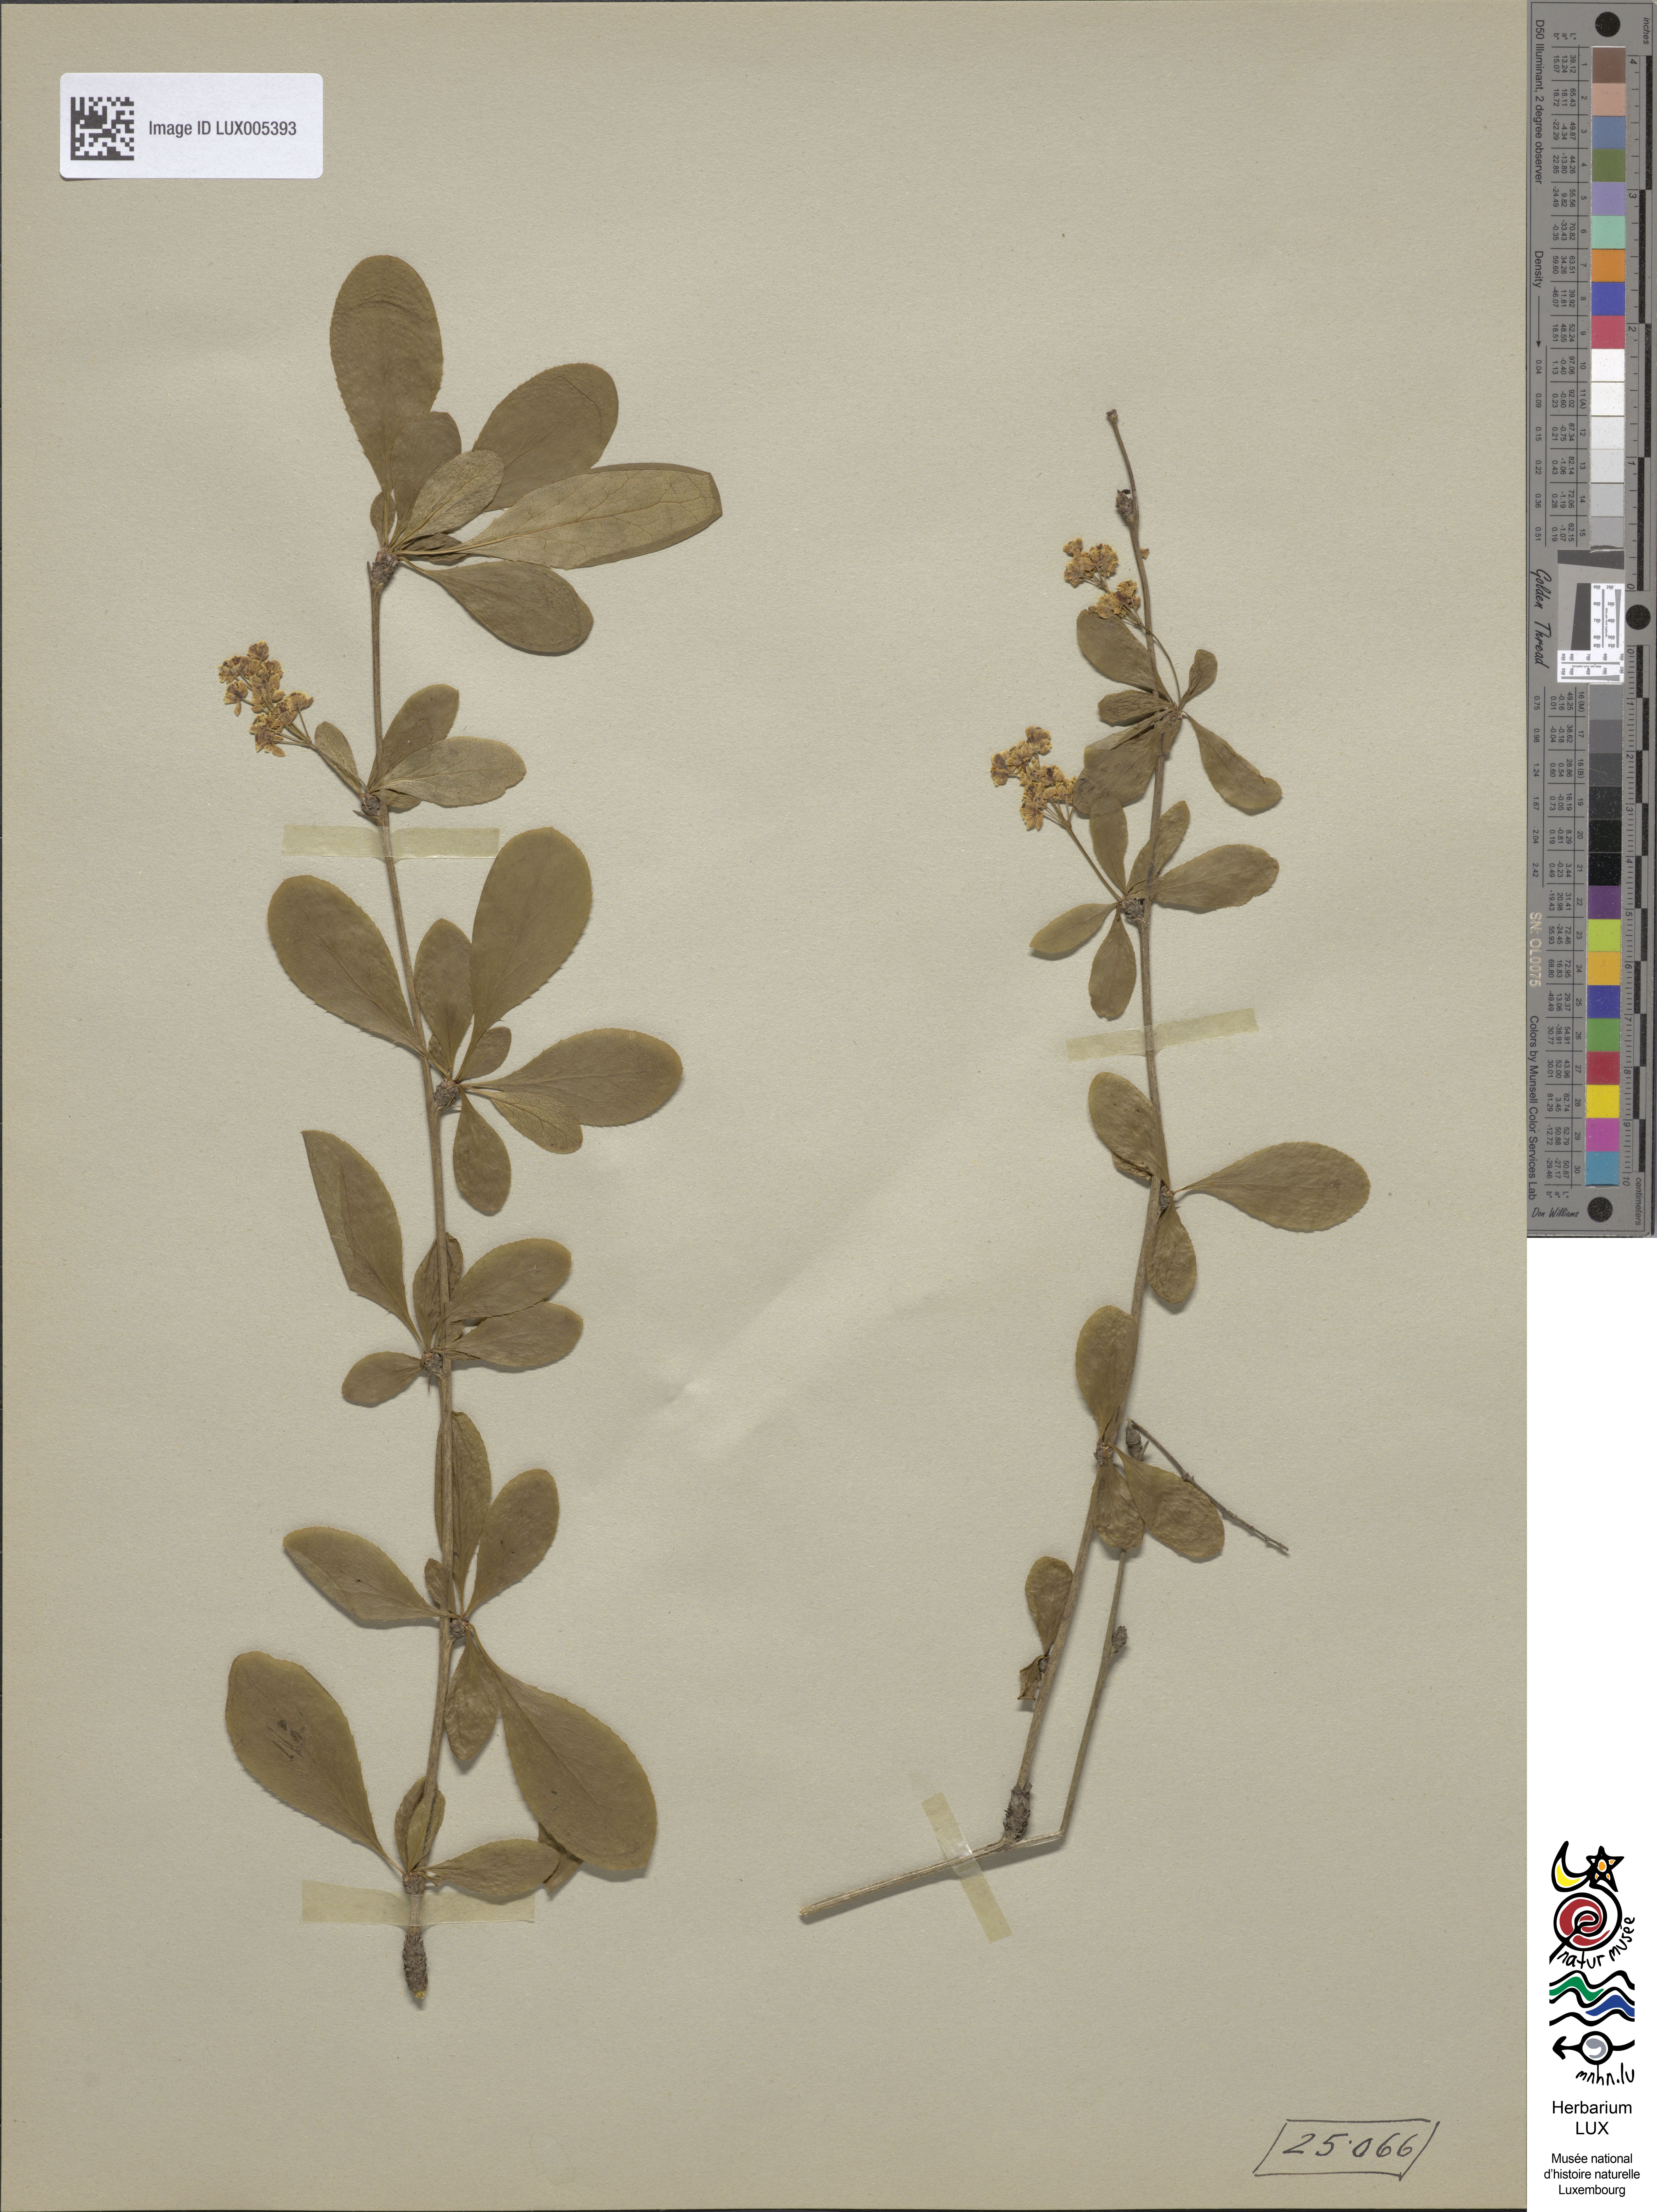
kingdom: Plantae
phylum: Tracheophyta
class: Magnoliopsida
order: Ranunculales
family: Berberidaceae
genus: Berberis
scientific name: Berberis vulgaris
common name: Barberry
